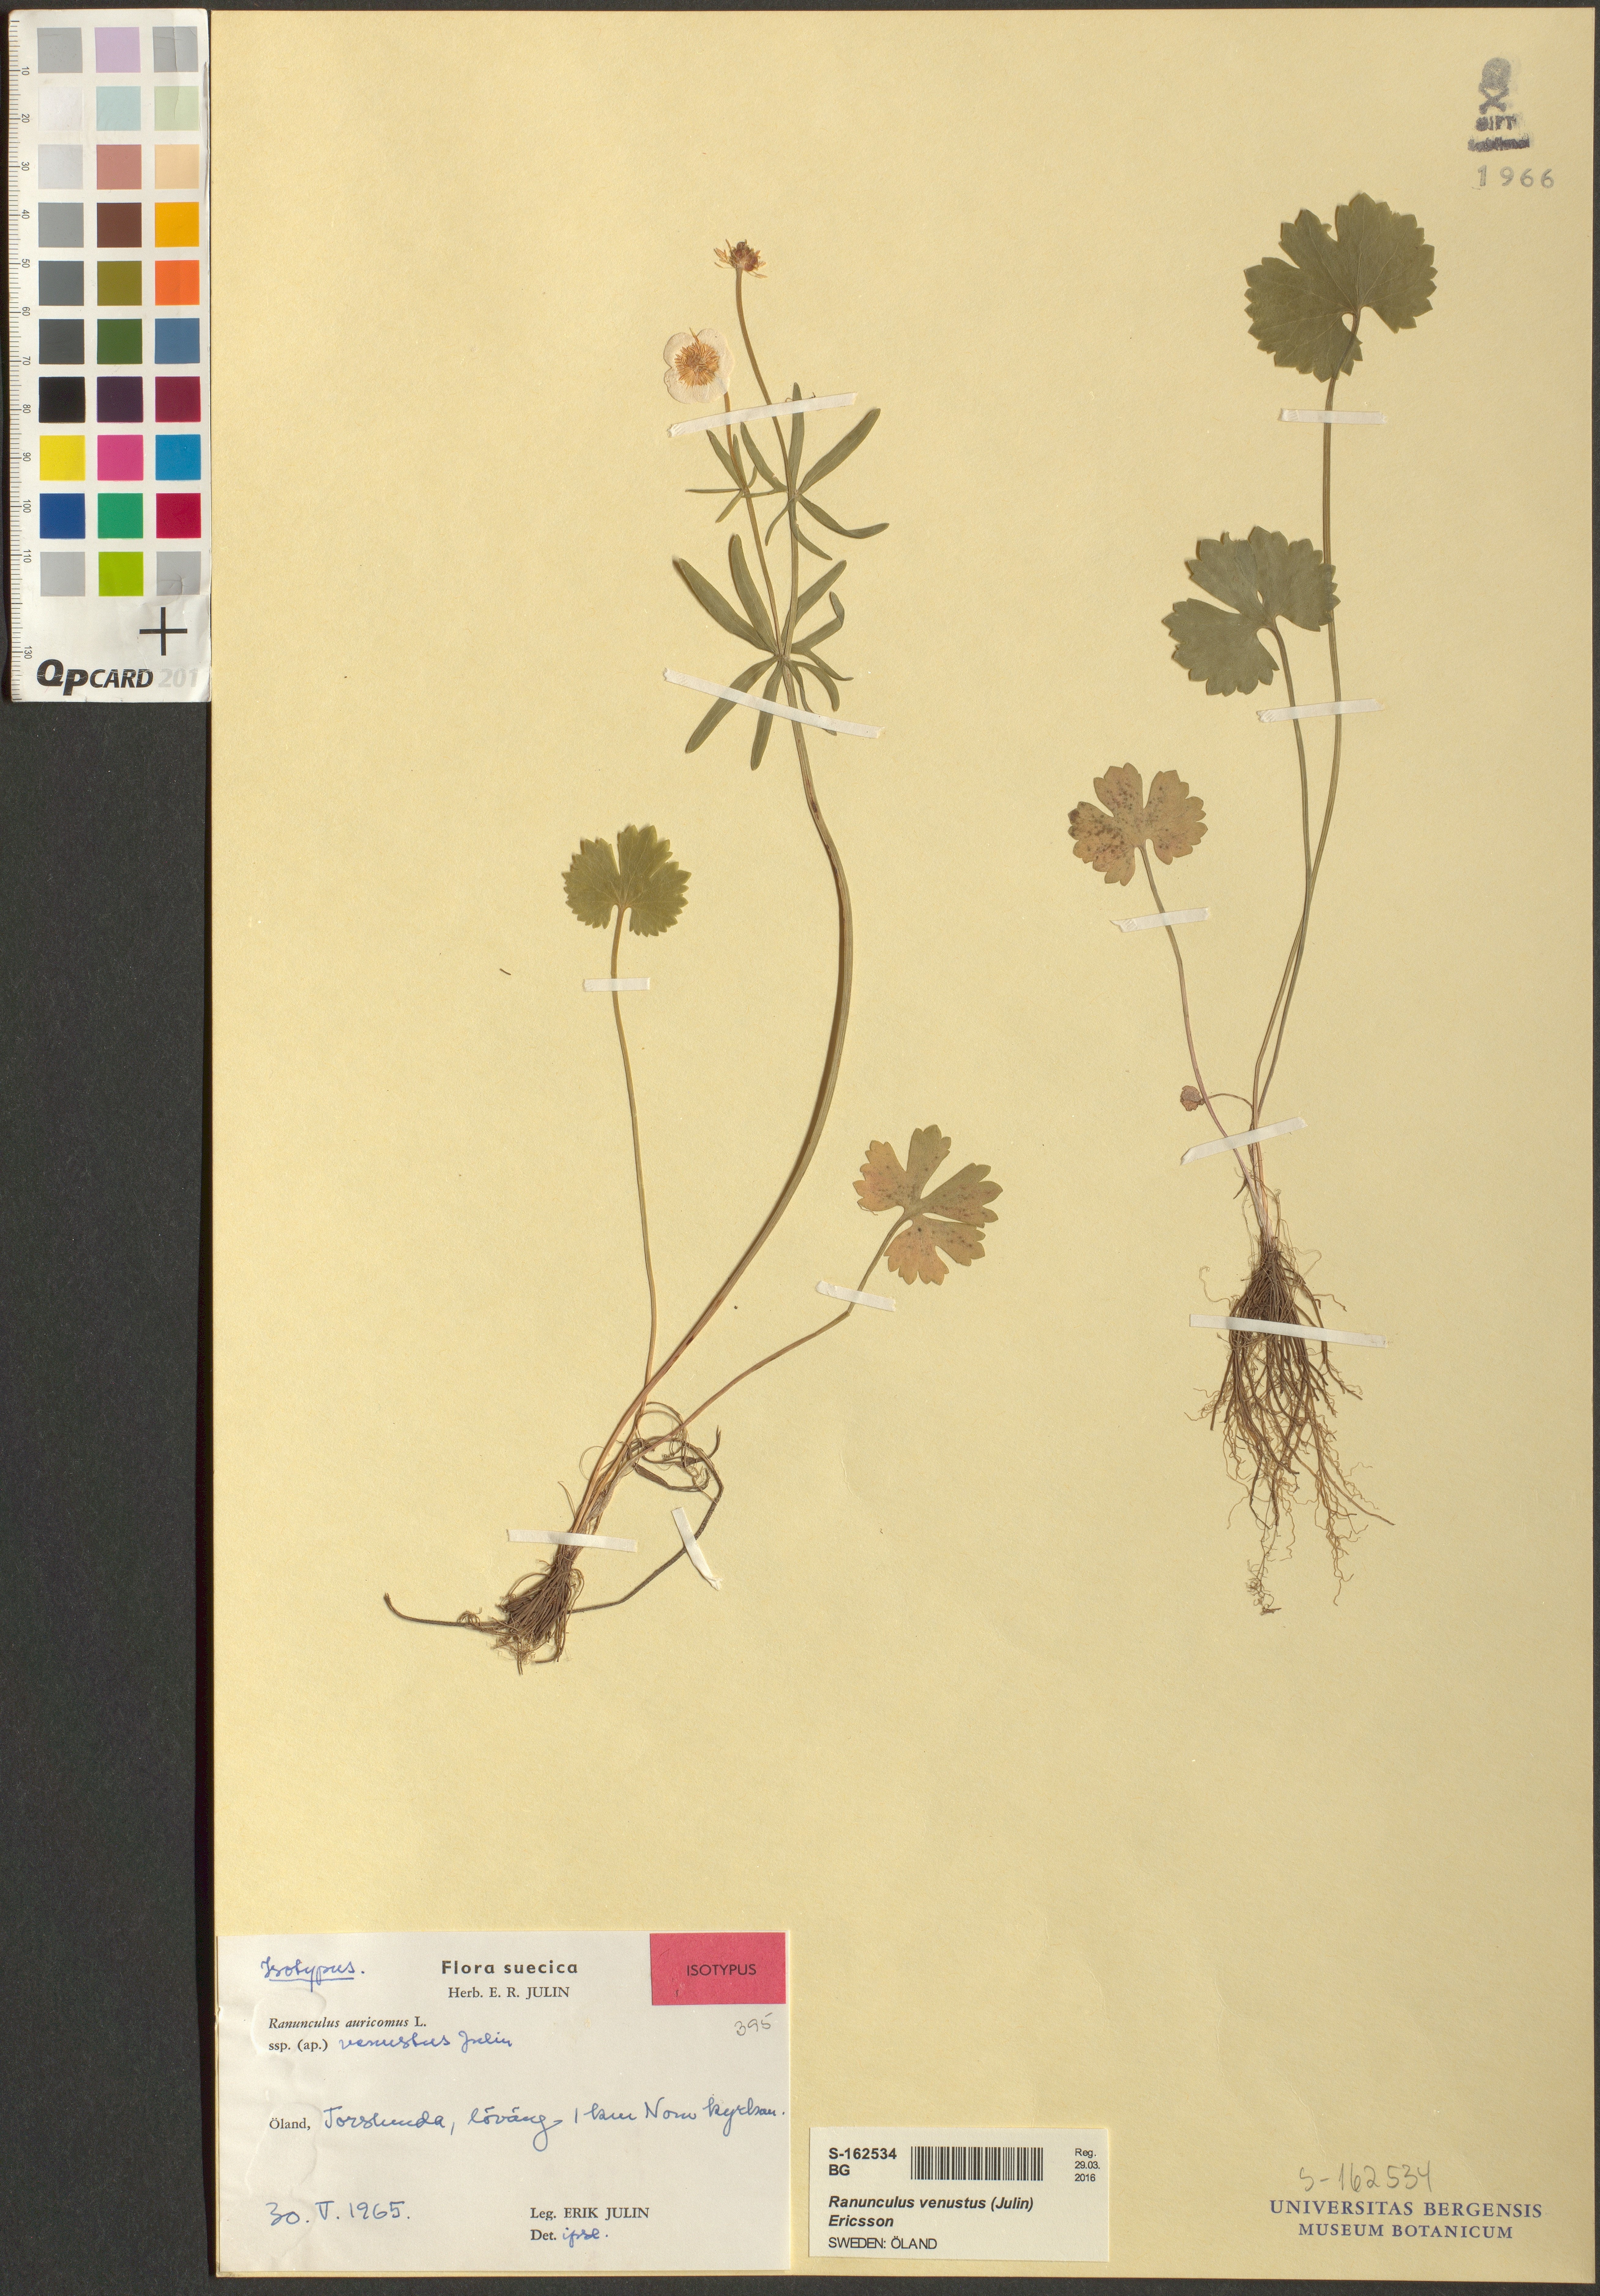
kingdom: Plantae
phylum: Tracheophyta
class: Magnoliopsida
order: Ranunculales
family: Ranunculaceae
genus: Ranunculus
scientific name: Ranunculus venustus
